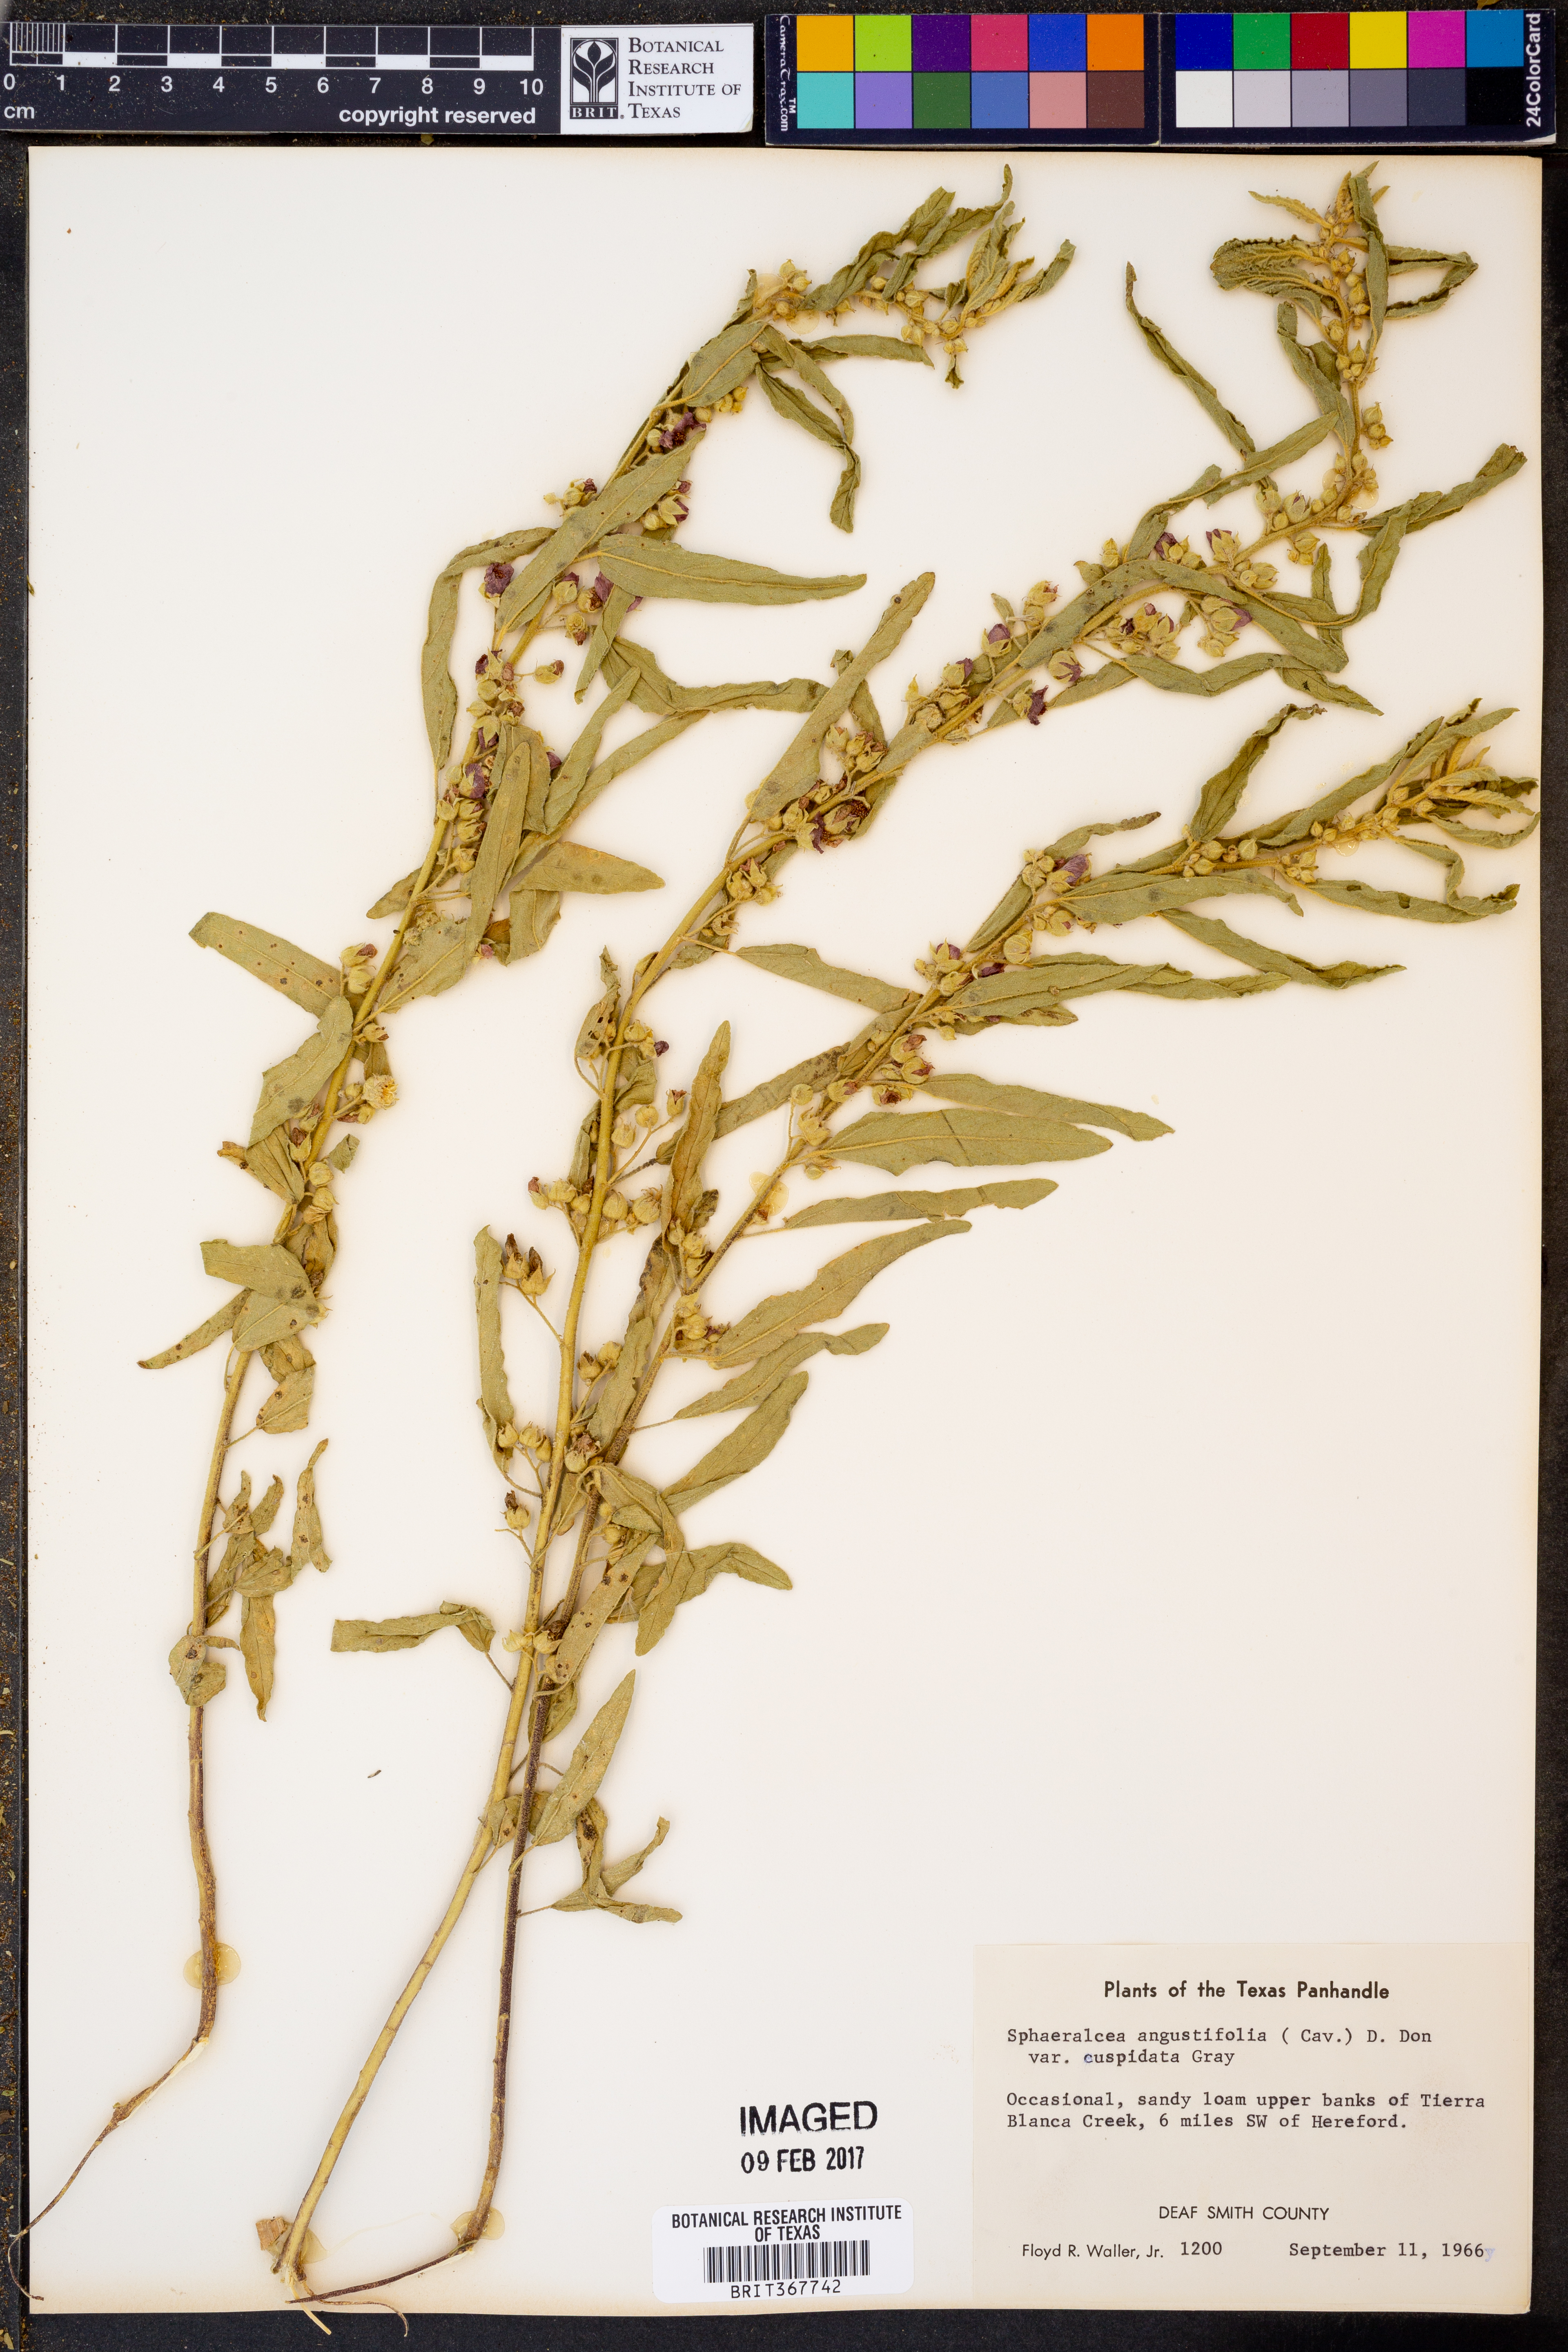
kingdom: Plantae
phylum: Tracheophyta
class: Magnoliopsida
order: Malvales
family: Malvaceae
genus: Sphaeralcea
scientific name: Sphaeralcea angustifolia
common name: Copper globe-mallow
